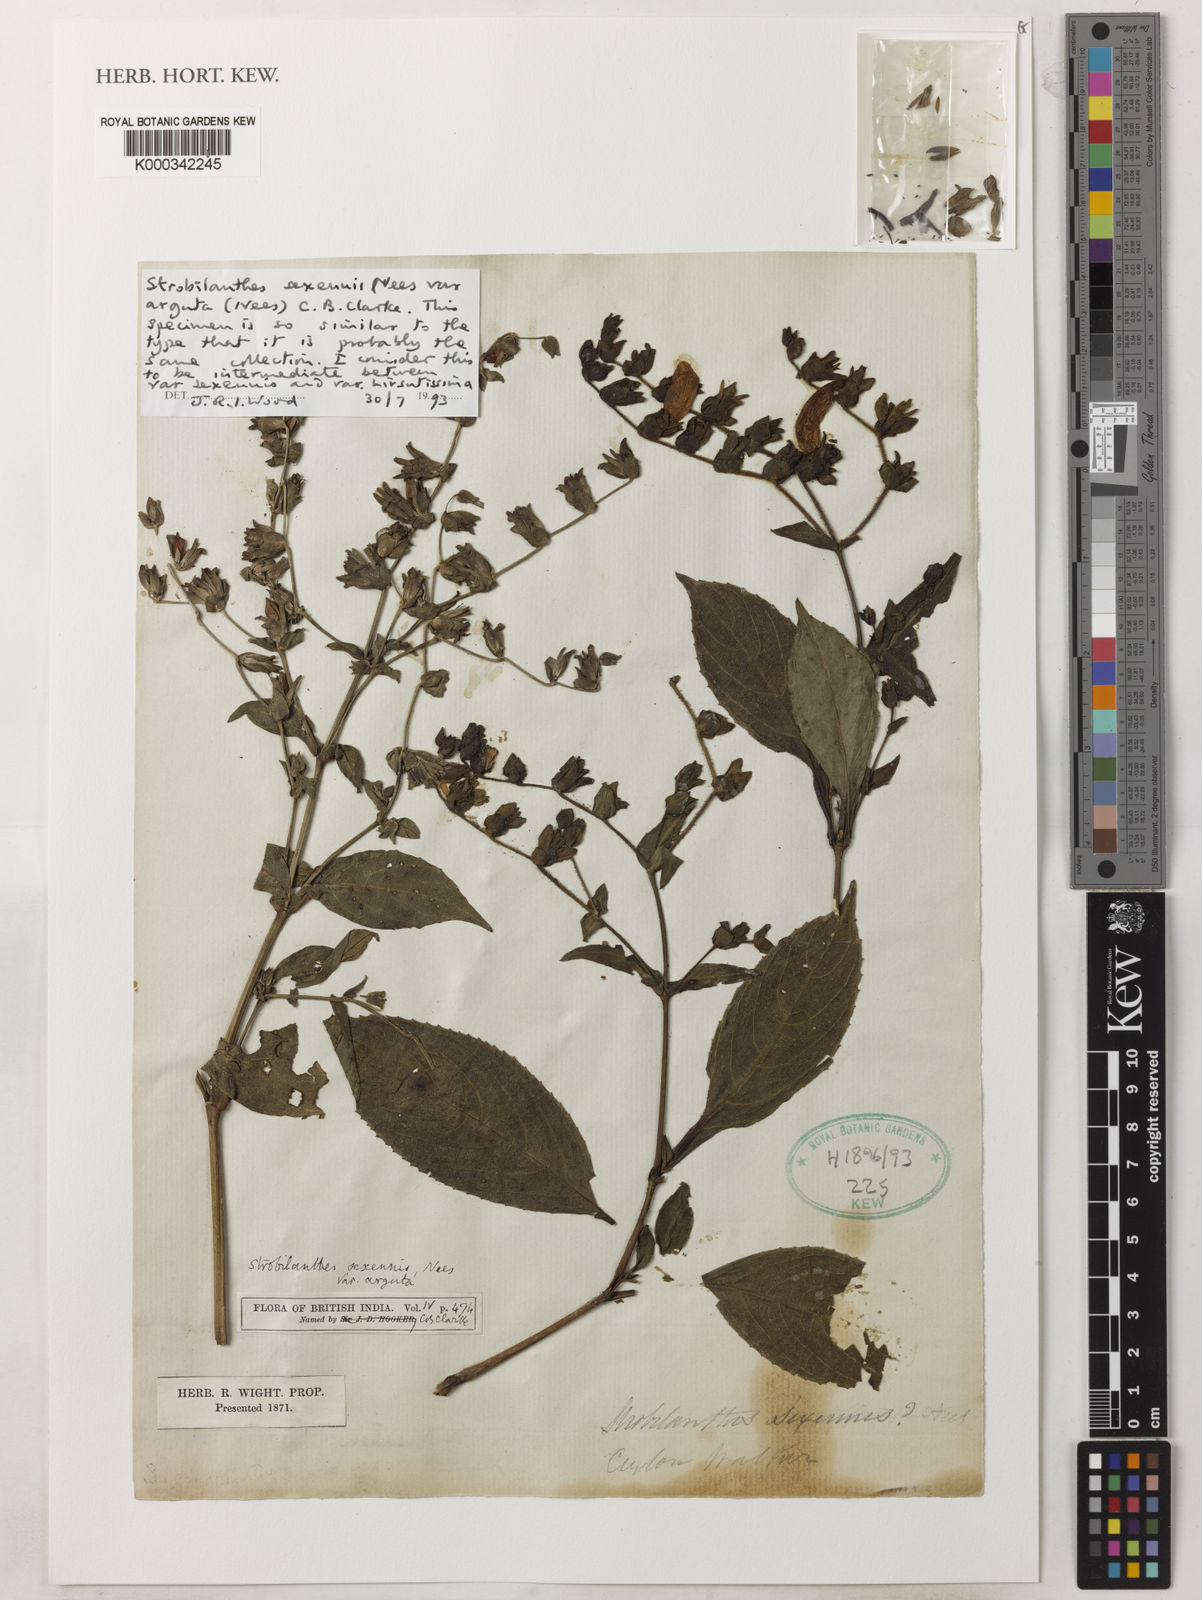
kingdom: Plantae
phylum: Tracheophyta
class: Magnoliopsida
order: Lamiales
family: Acanthaceae
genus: Strobilanthes
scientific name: Strobilanthes sexennis
